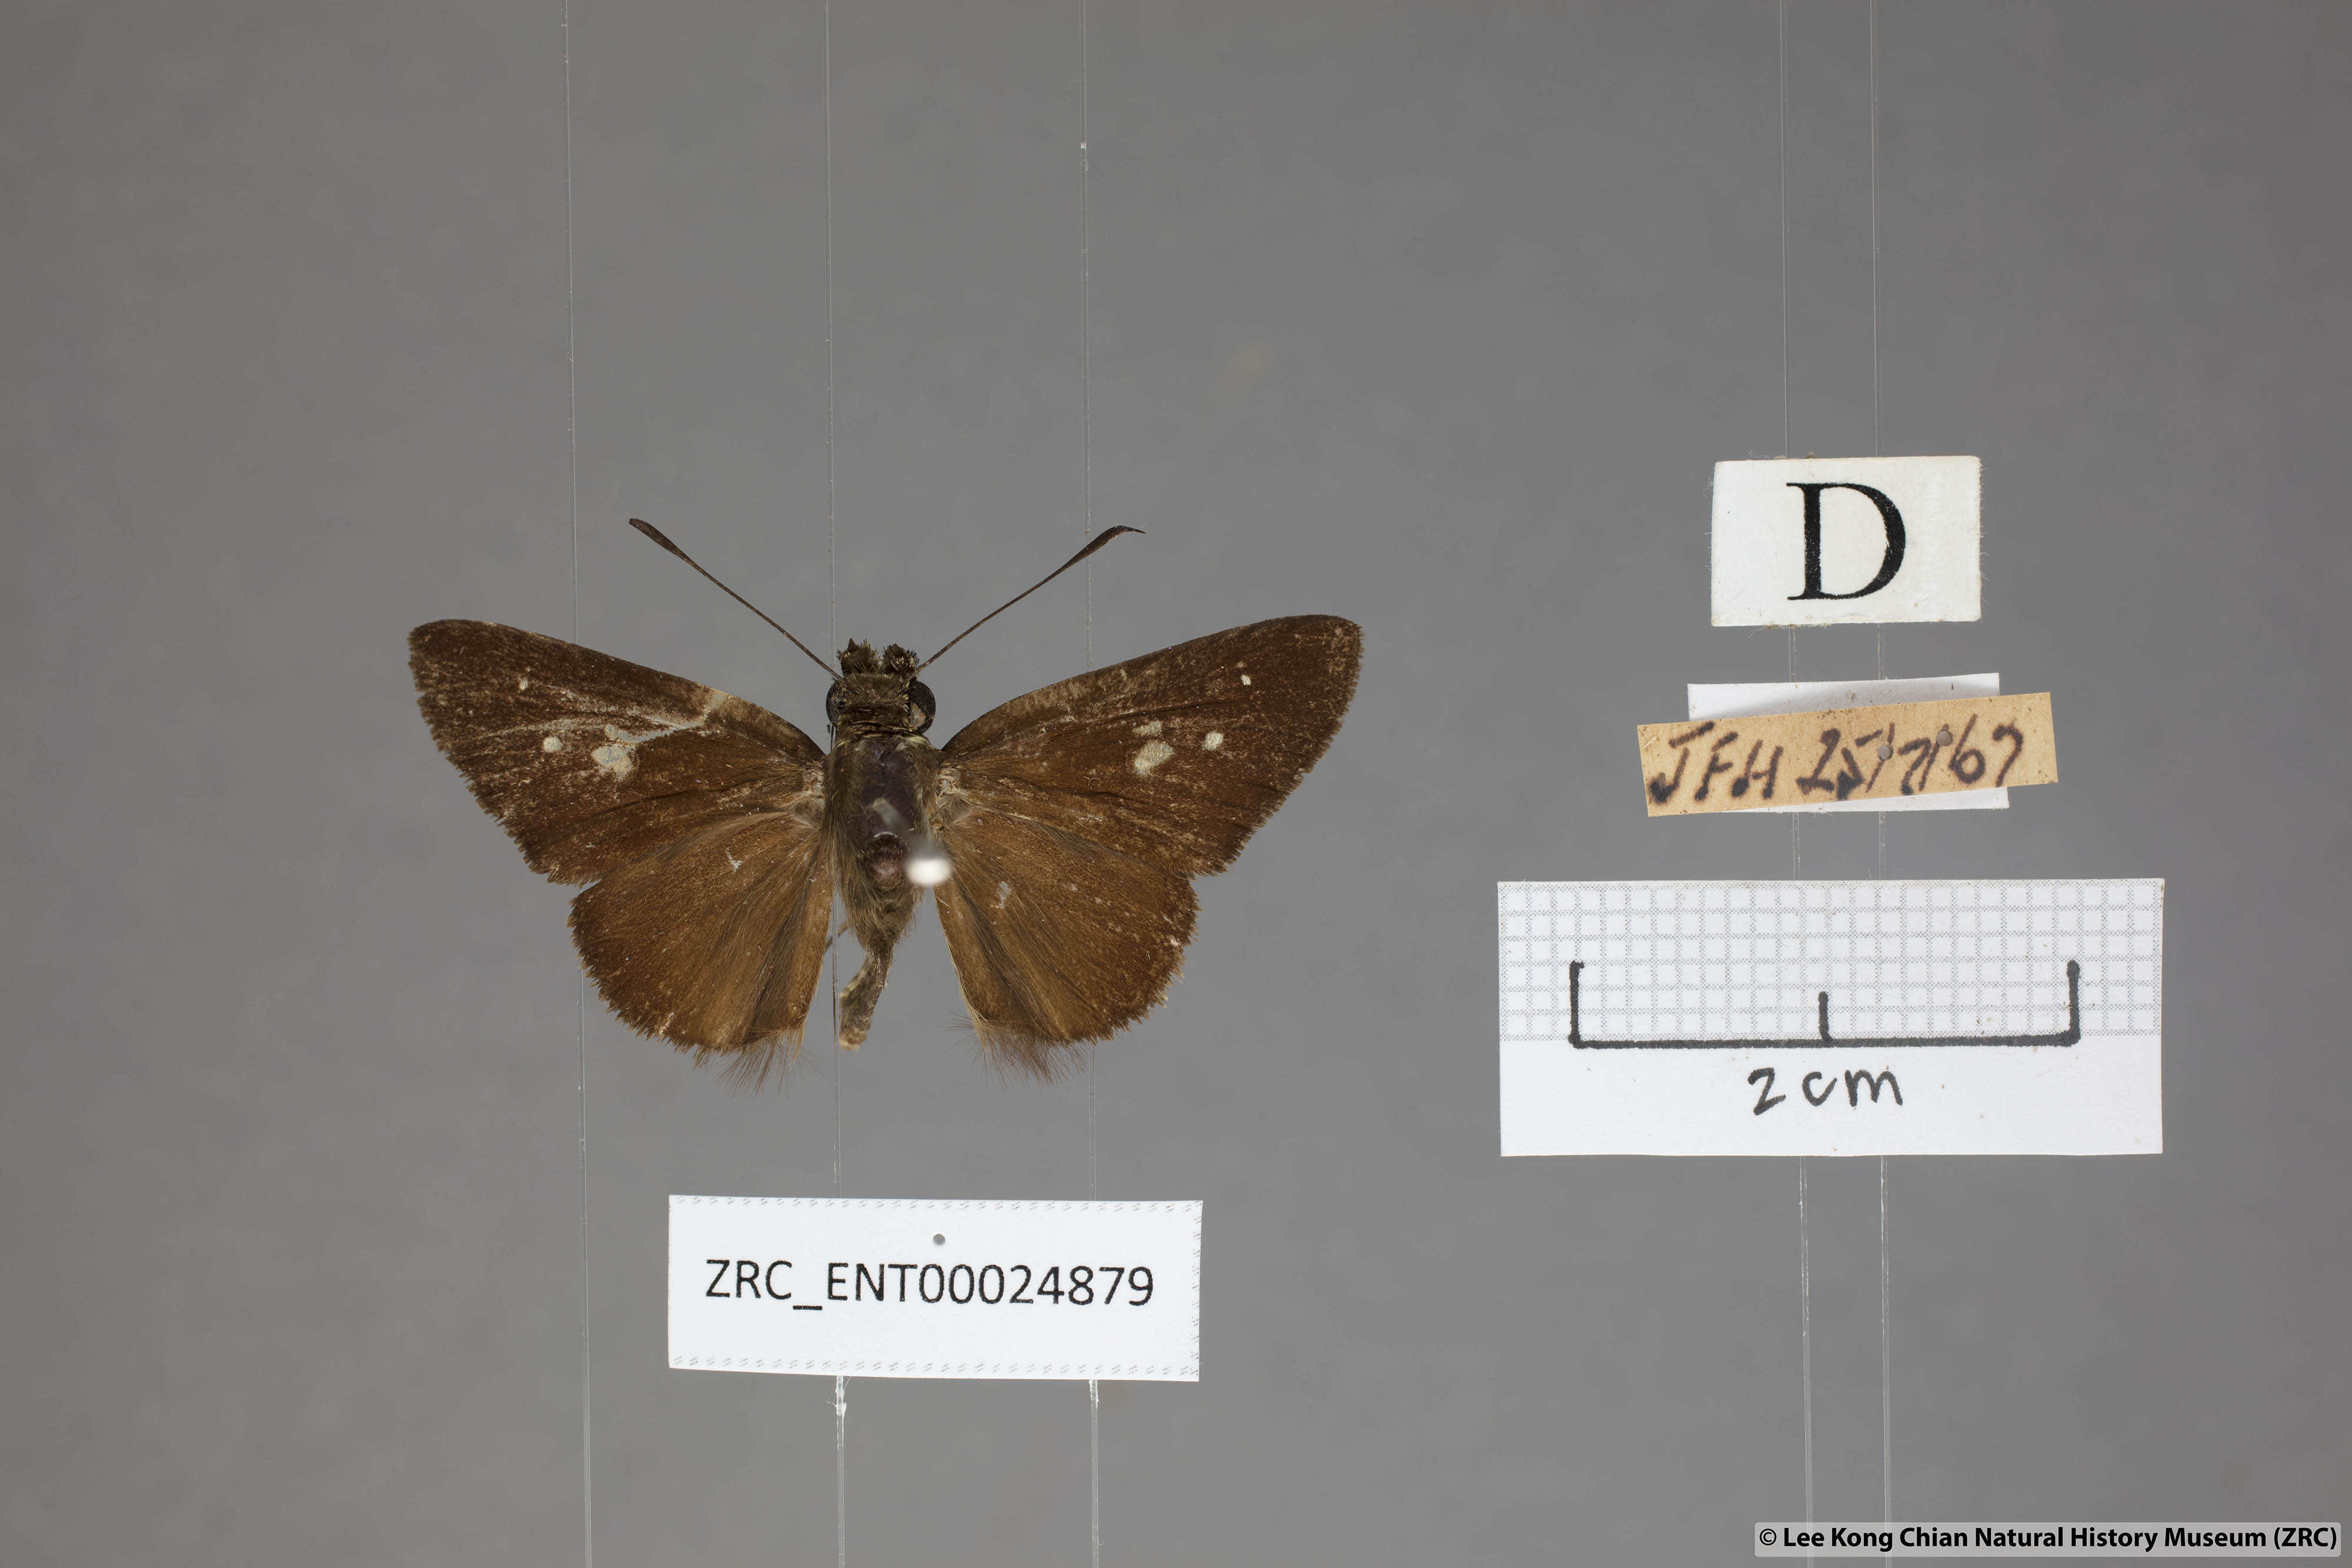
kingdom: Animalia
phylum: Arthropoda
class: Insecta
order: Lepidoptera
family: Hesperiidae
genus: Isma
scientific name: Isma protoclea
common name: Bicolour long-horned flitter
